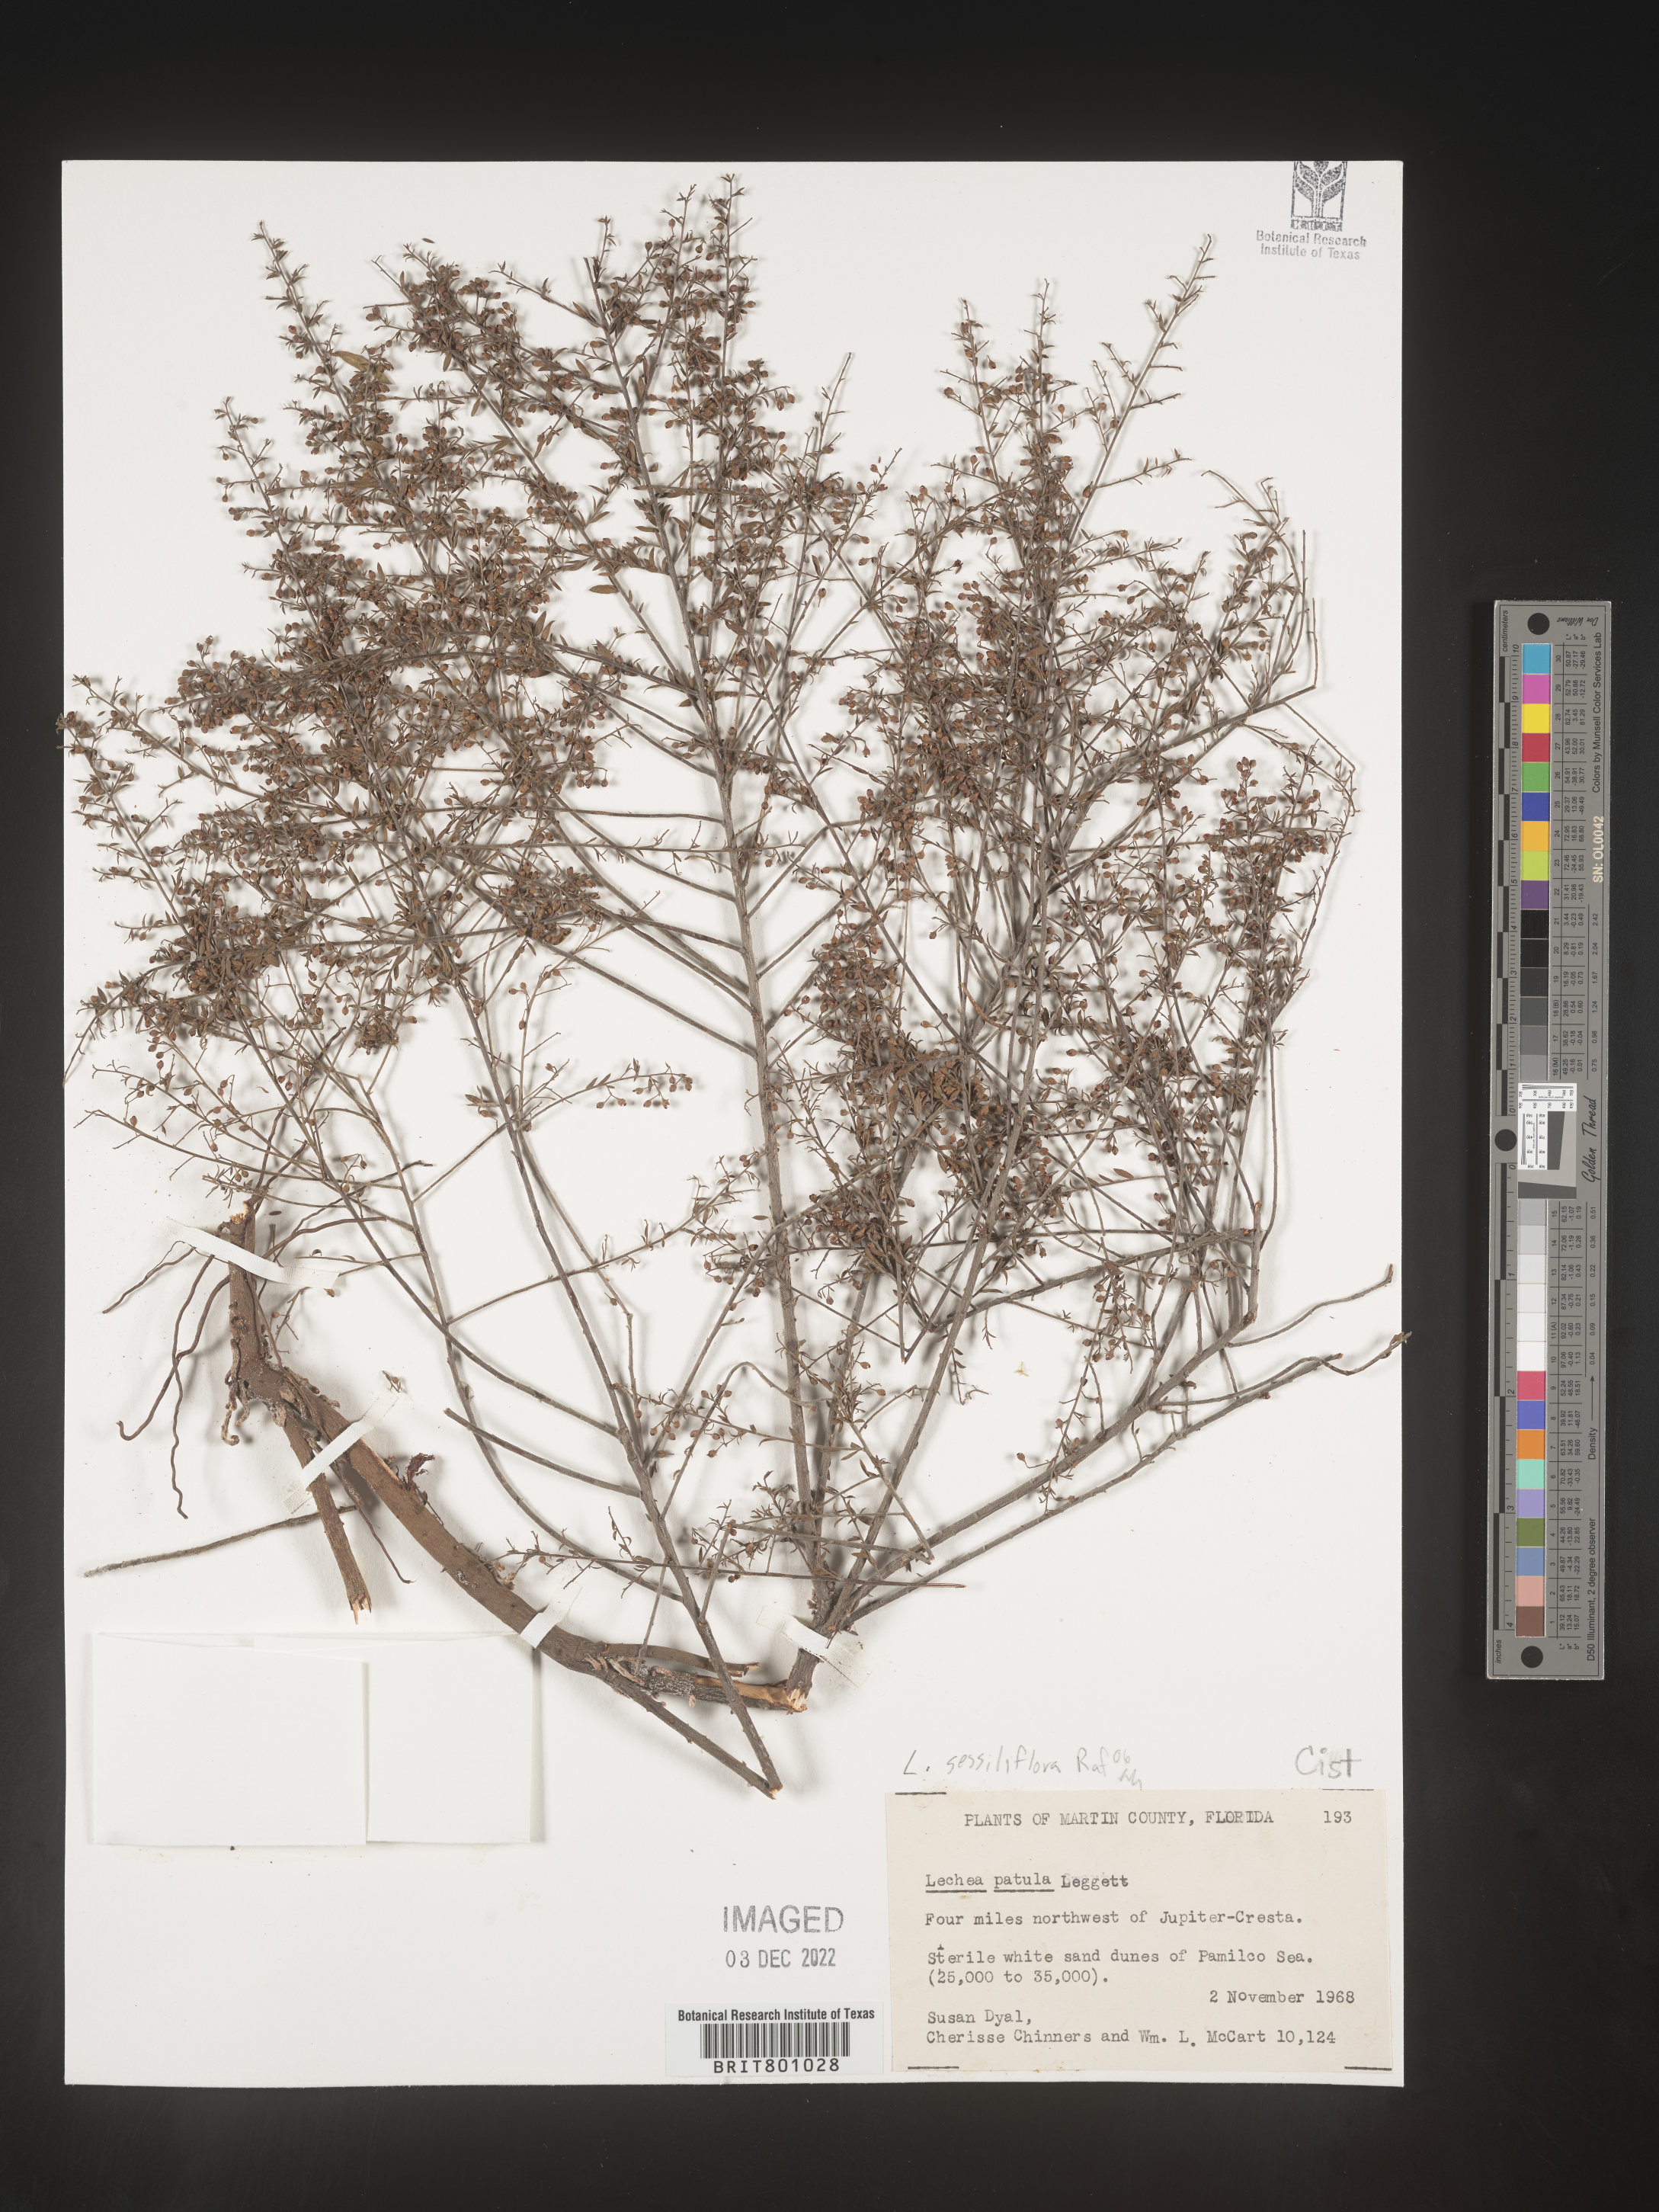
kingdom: Plantae
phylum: Tracheophyta
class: Magnoliopsida
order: Malvales
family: Cistaceae
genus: Lechea
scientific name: Lechea
